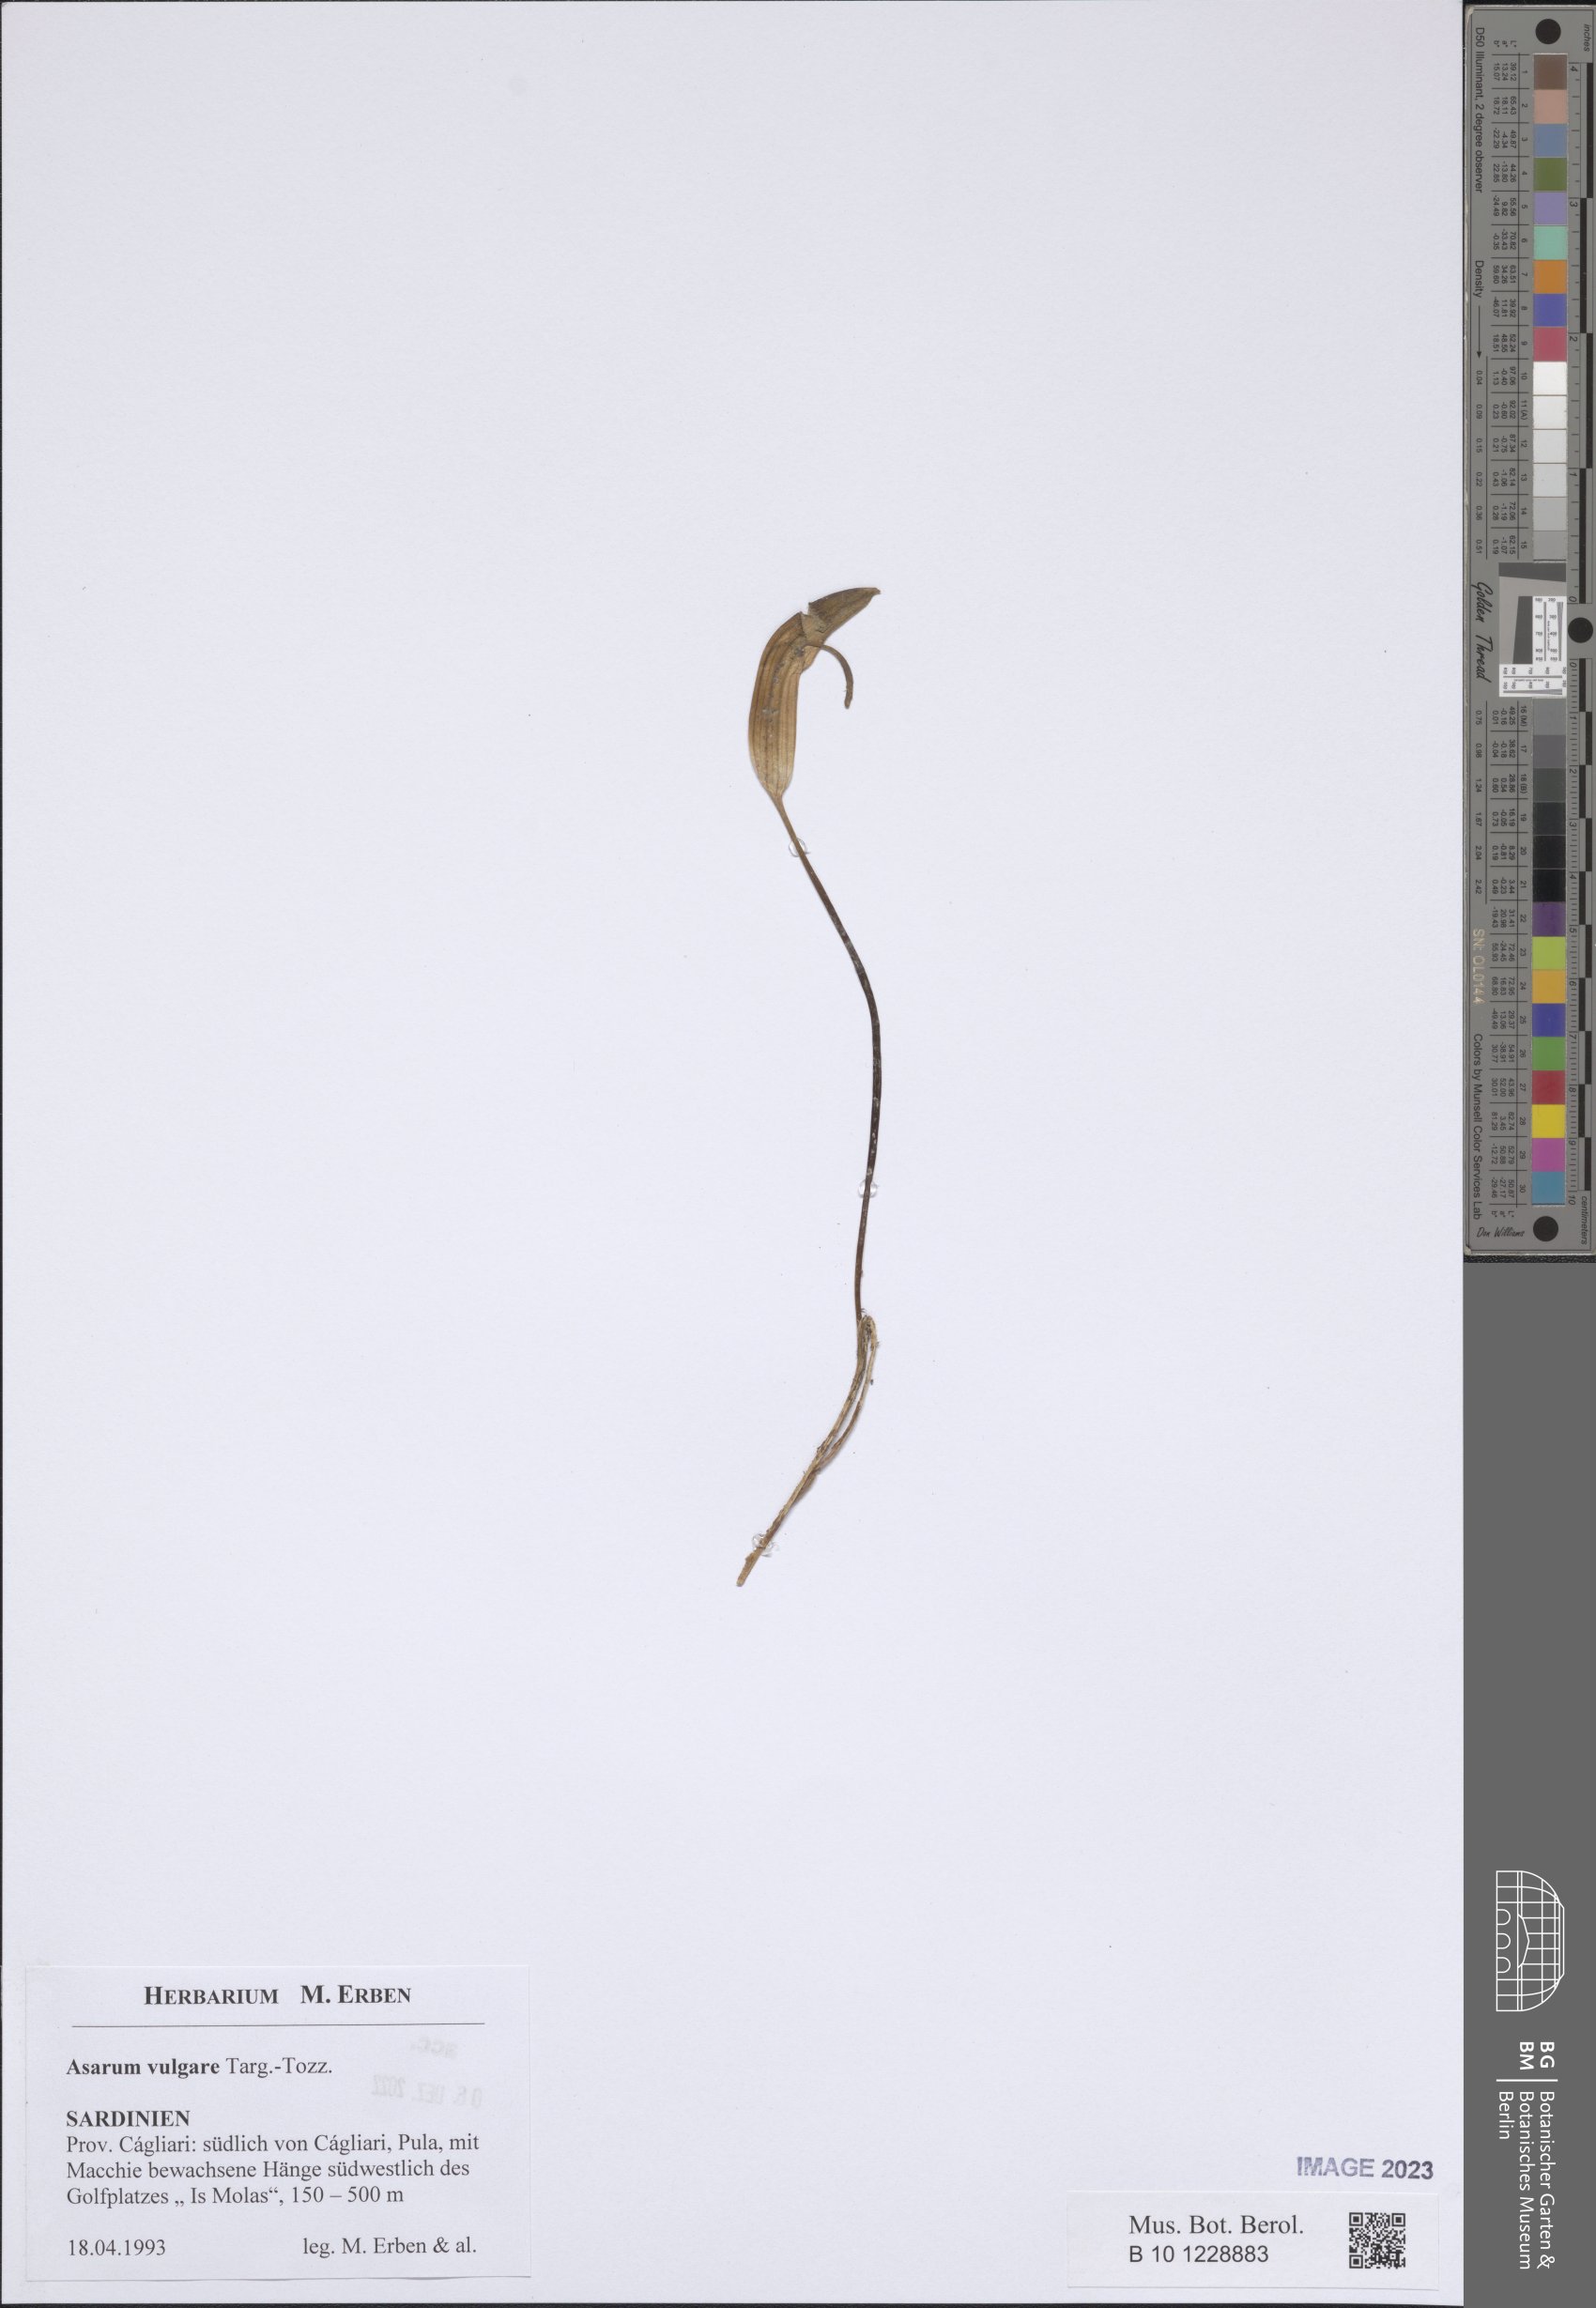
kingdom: Plantae
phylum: Tracheophyta
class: Liliopsida
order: Alismatales
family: Araceae
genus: Arisarum
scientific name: Arisarum vulgare
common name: Common arisarum
